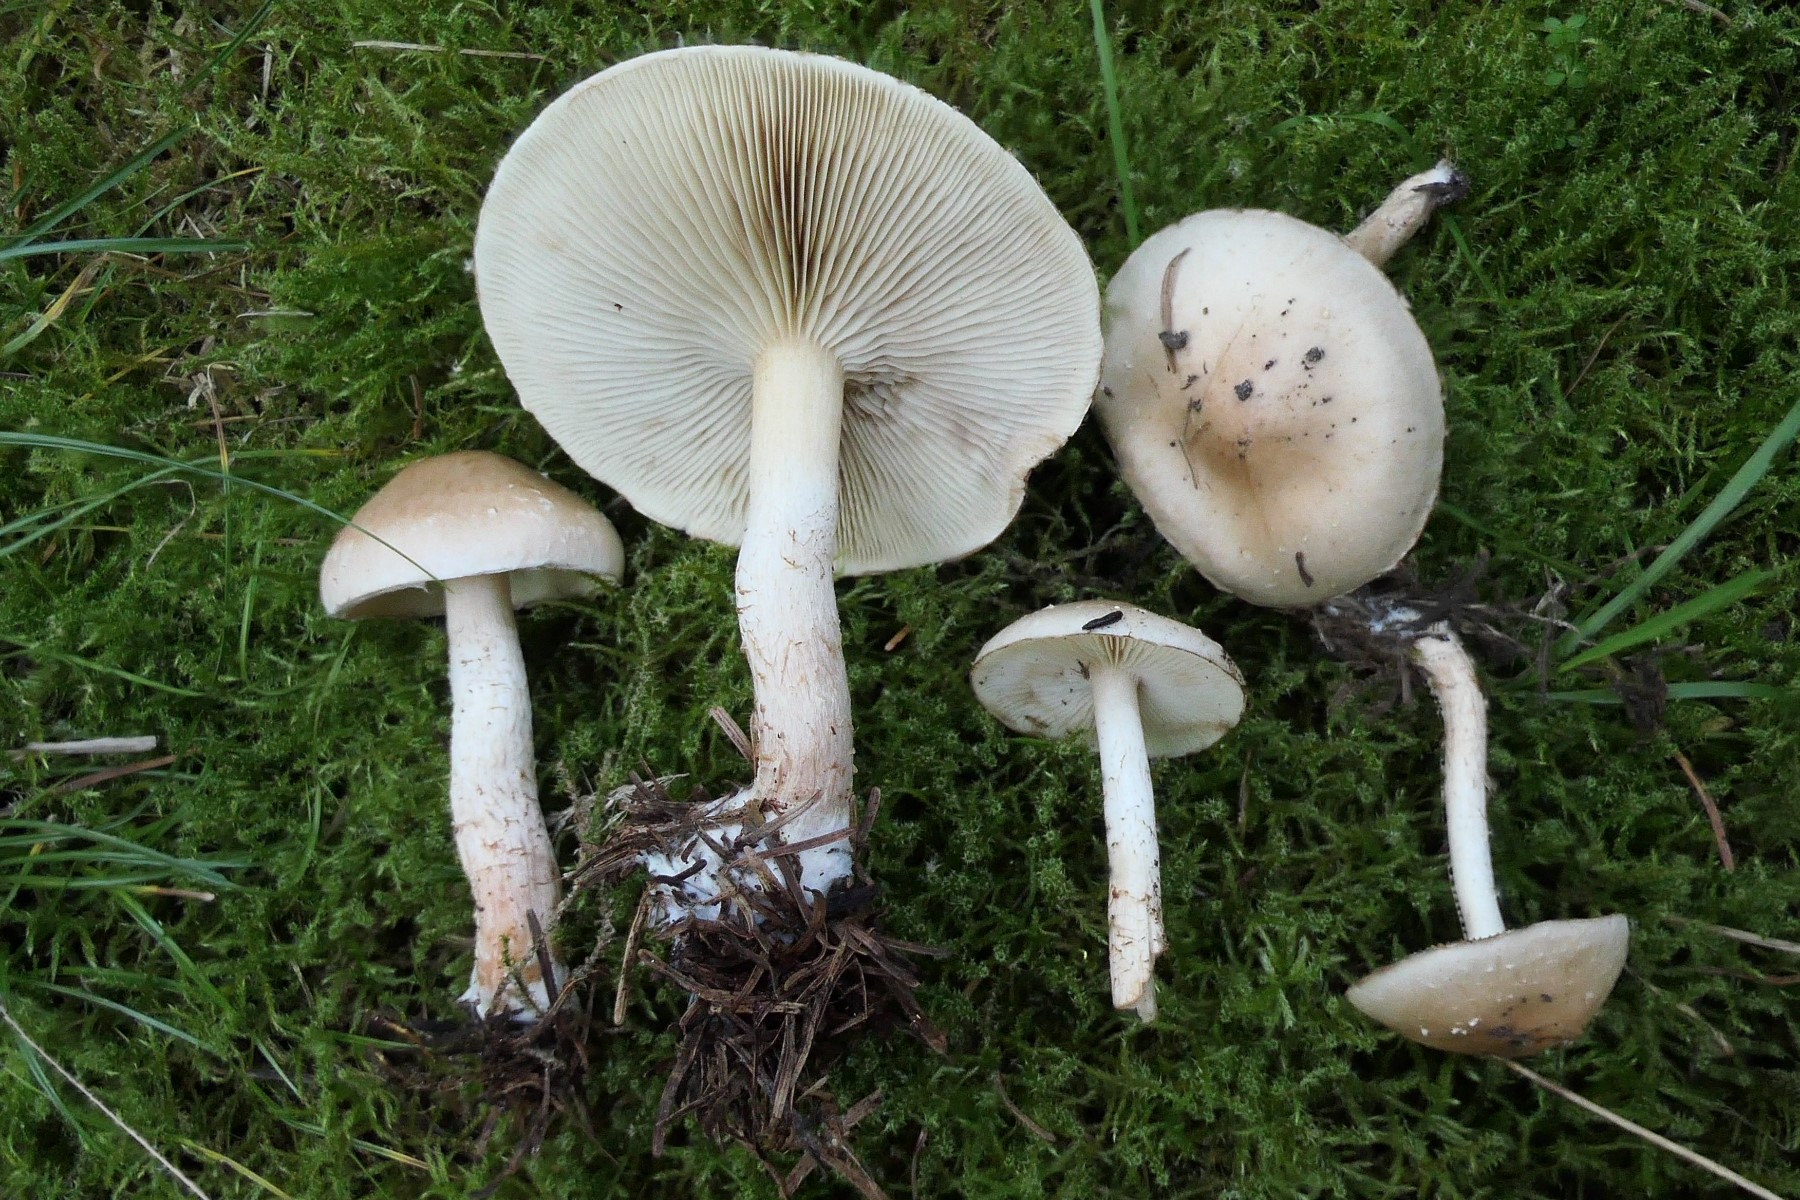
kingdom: Fungi
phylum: Basidiomycota
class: Agaricomycetes
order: Agaricales
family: Strophariaceae
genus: Pholiota
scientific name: Pholiota lenta
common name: løv-skælhat
